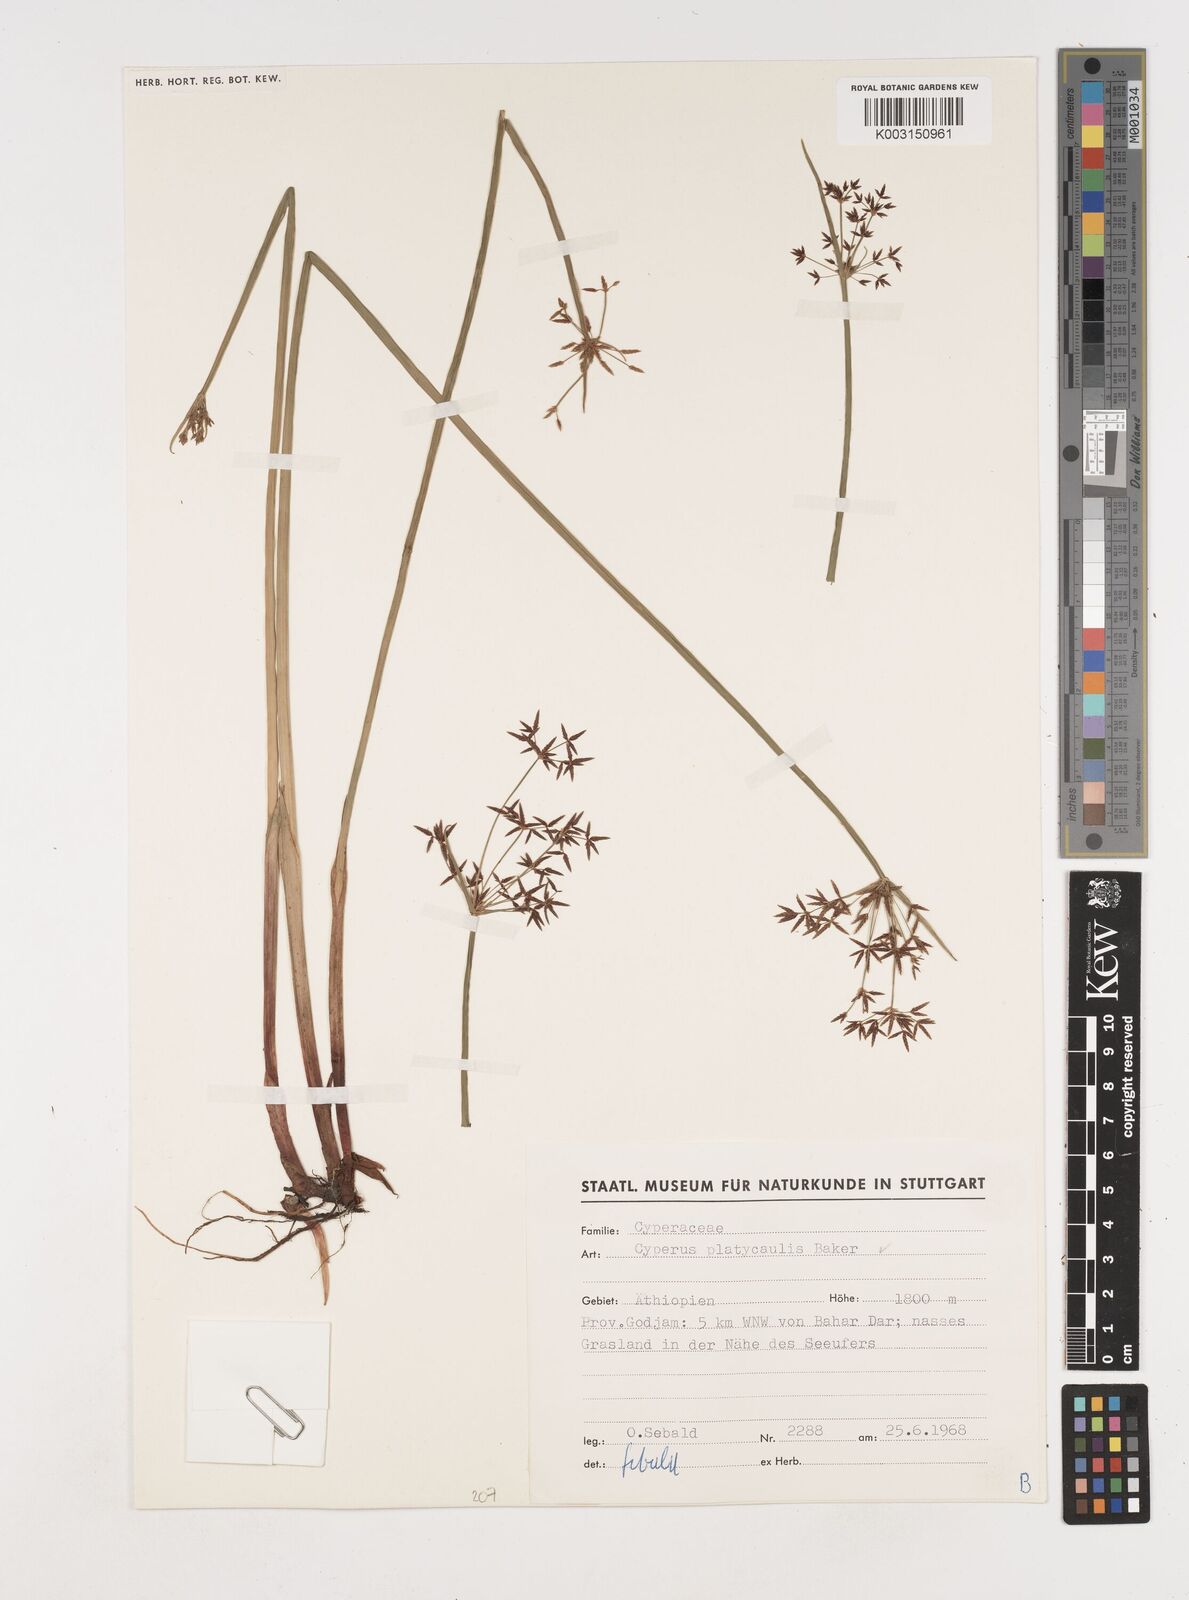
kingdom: Plantae
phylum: Tracheophyta
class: Liliopsida
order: Poales
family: Cyperaceae
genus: Cyperus
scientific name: Cyperus platycaulis
